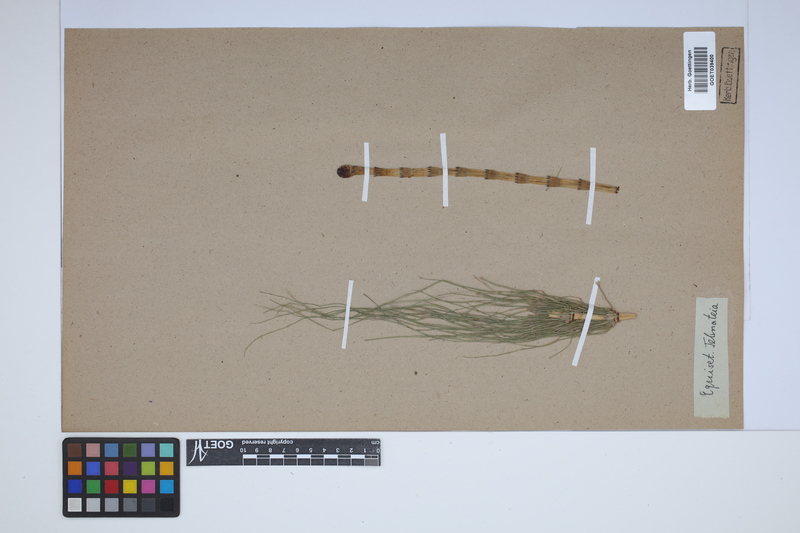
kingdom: Plantae
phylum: Tracheophyta
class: Polypodiopsida
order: Equisetales
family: Equisetaceae
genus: Equisetum
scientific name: Equisetum telmateia
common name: Great horsetail
